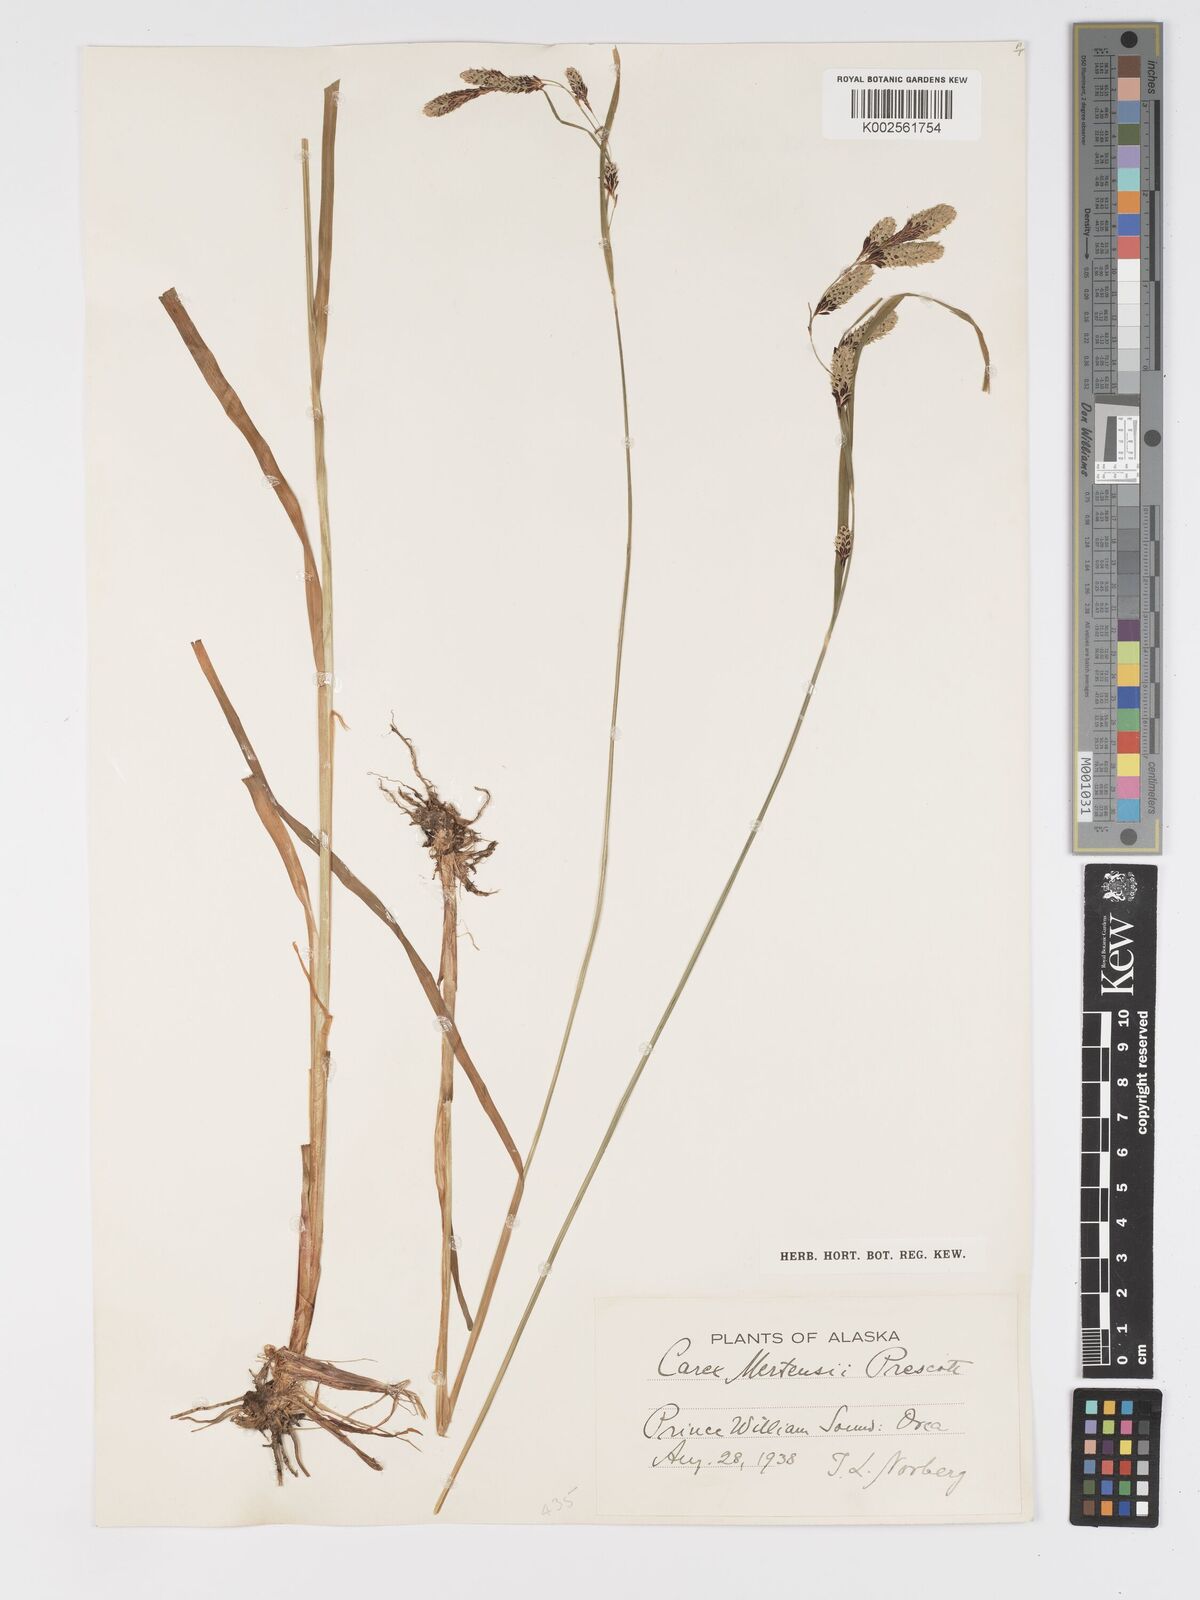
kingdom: Plantae
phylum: Tracheophyta
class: Liliopsida
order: Poales
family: Cyperaceae
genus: Carex
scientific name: Carex mertensii
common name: Mertens' sedge
